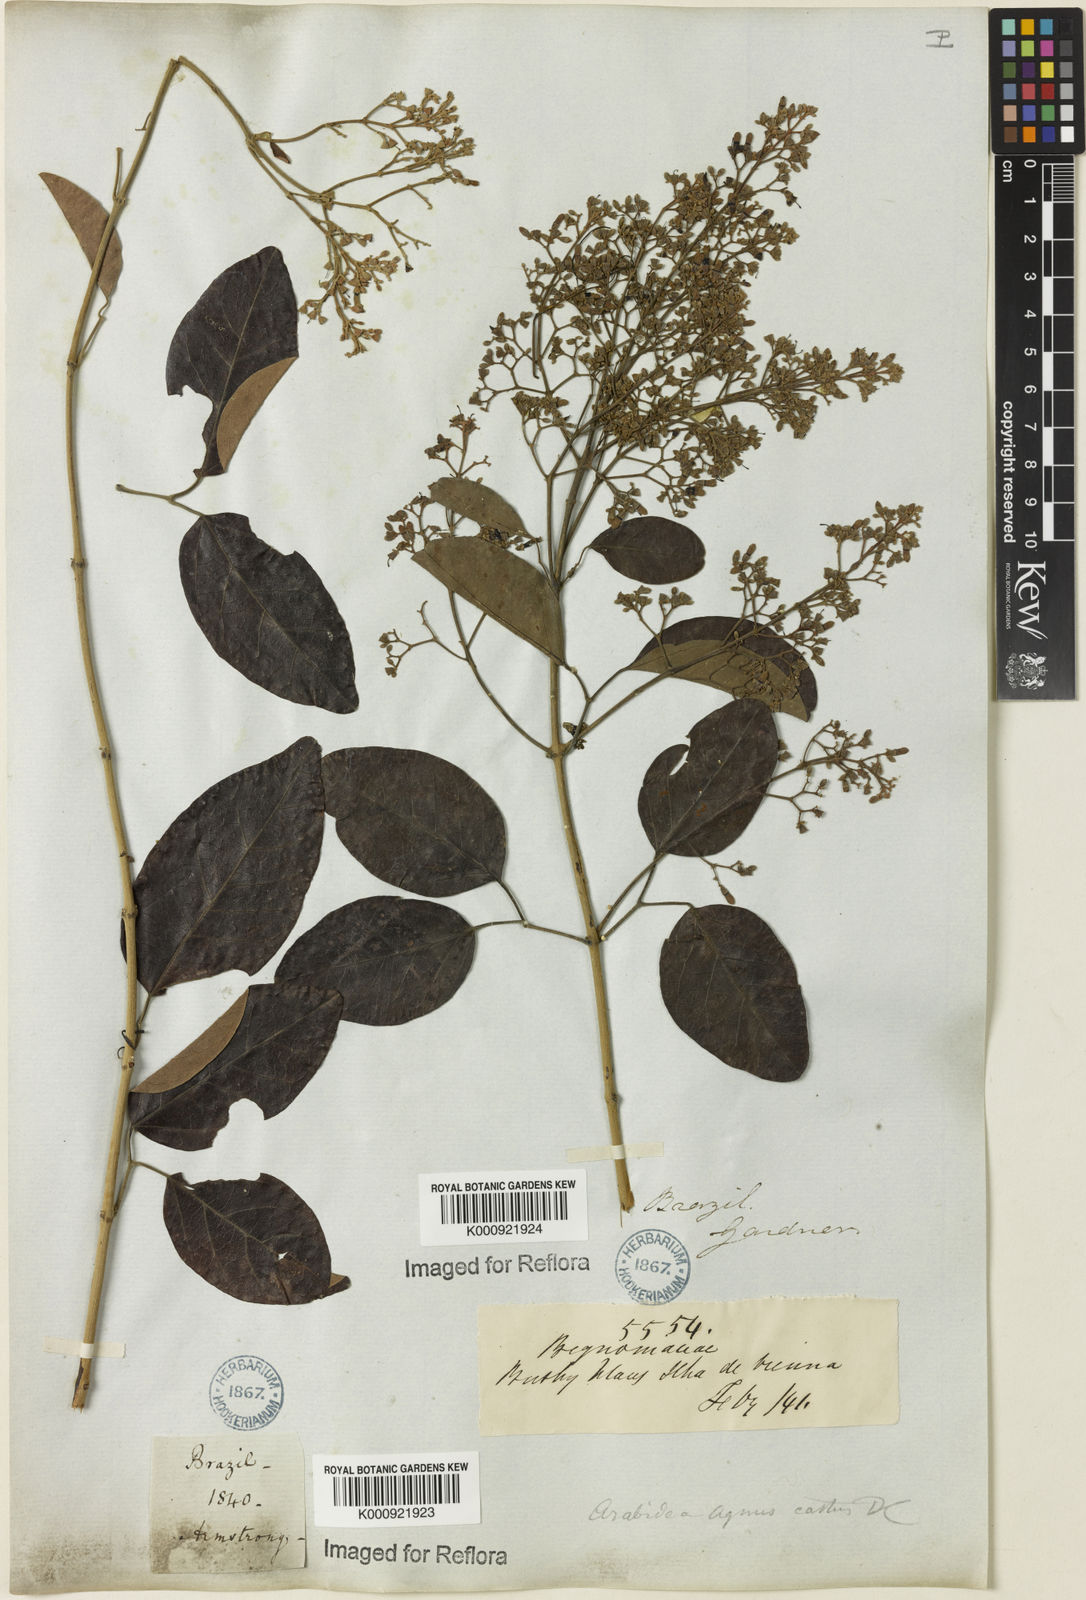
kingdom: Plantae
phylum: Tracheophyta
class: Magnoliopsida
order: Rosales
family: Rhamnaceae
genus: Arrabidaea
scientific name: Arrabidaea
